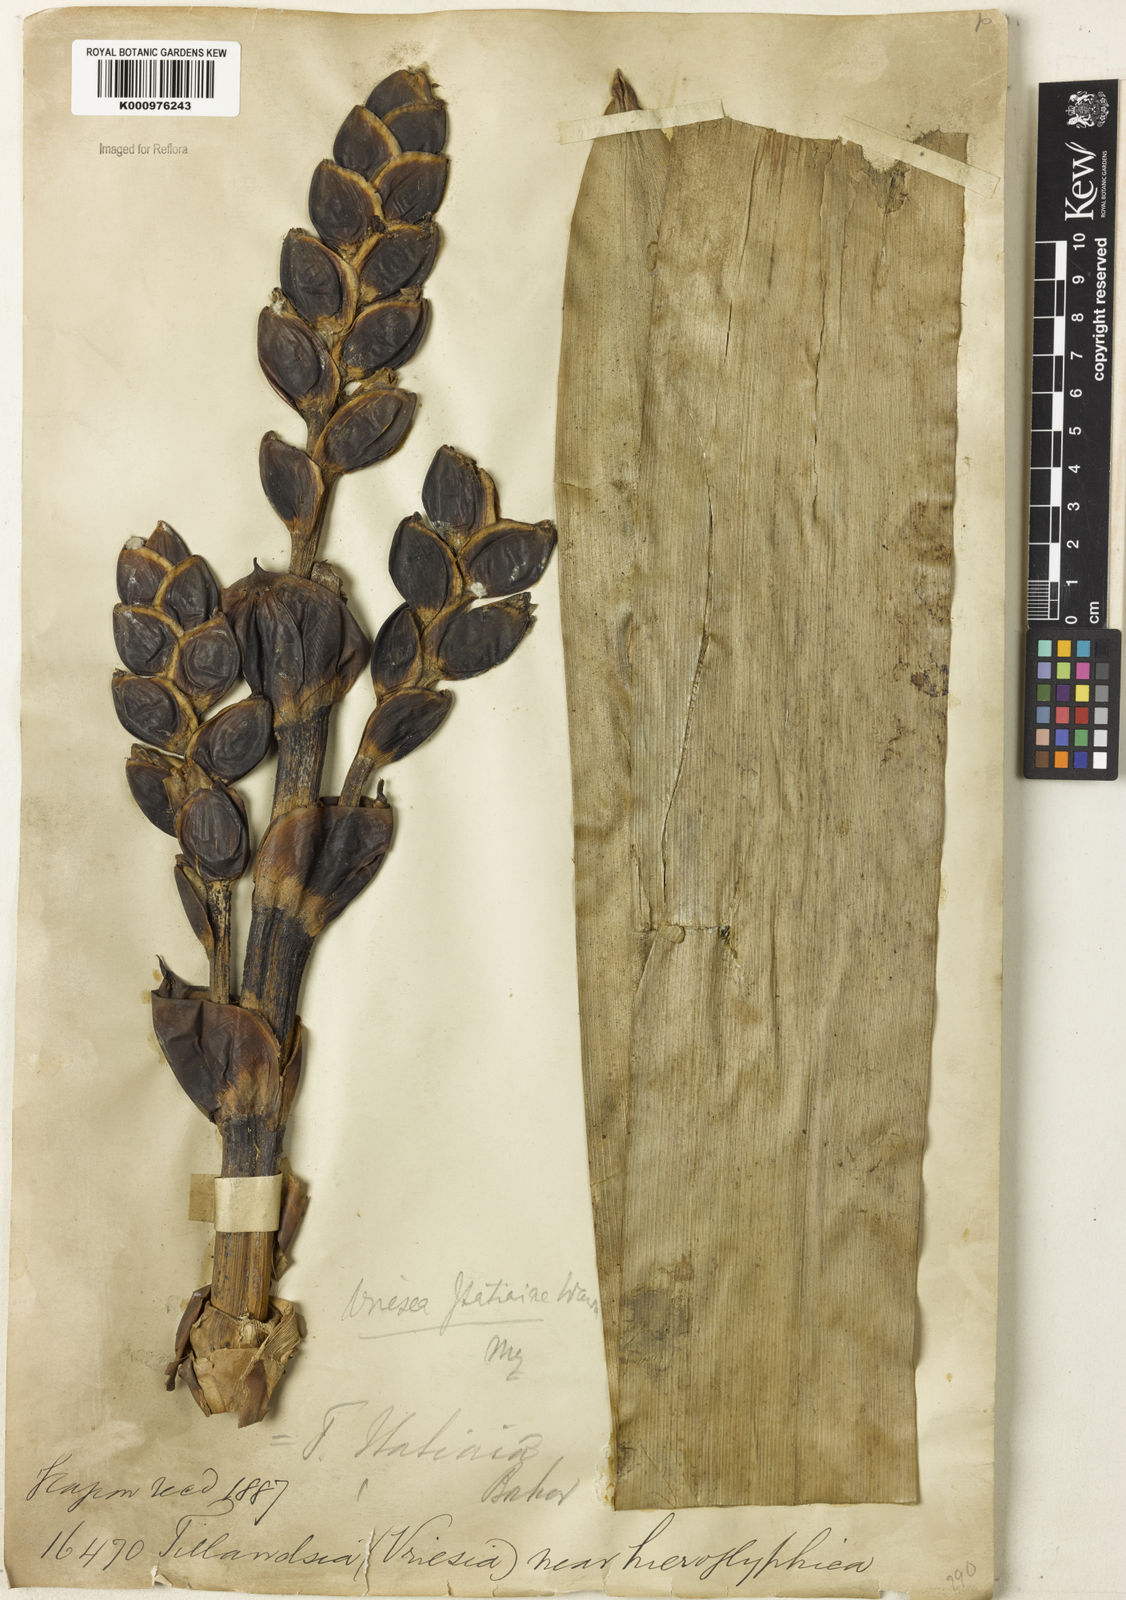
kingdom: Plantae
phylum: Tracheophyta
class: Liliopsida
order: Poales
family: Bromeliaceae
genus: Vriesea
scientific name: Vriesea itatiaiae
